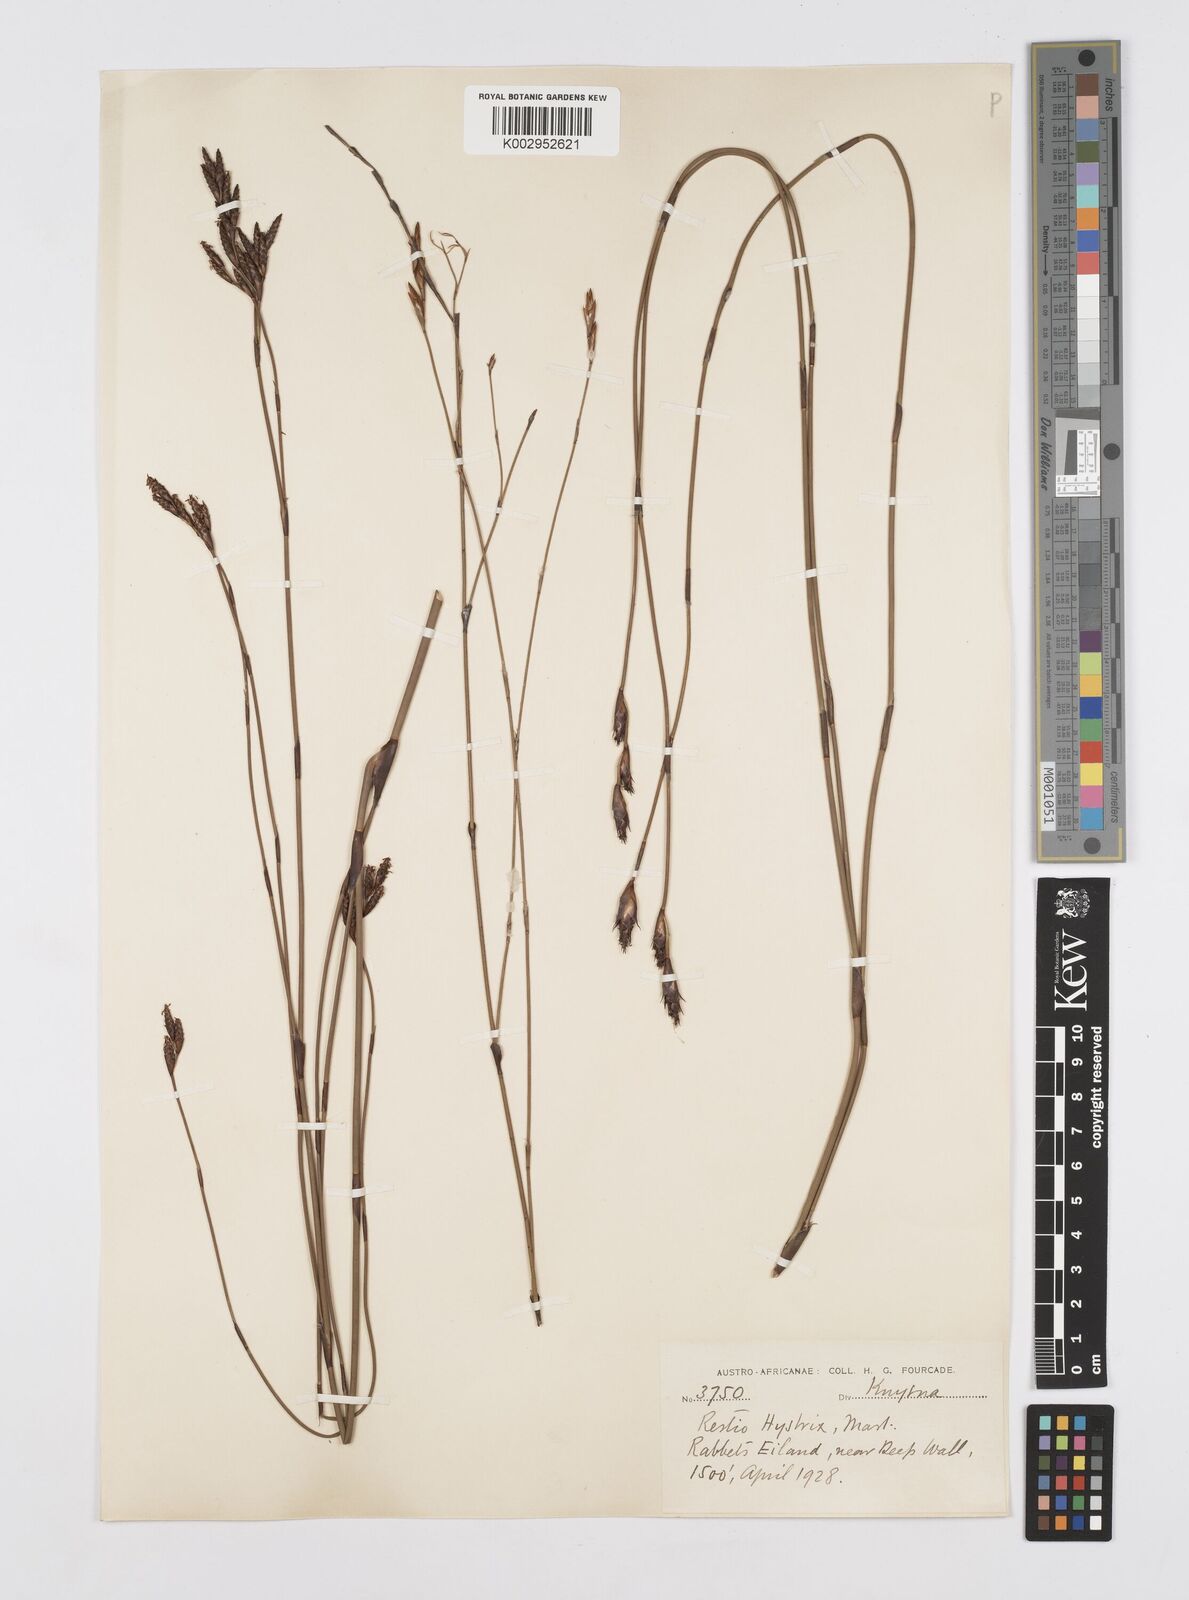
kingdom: Plantae
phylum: Tracheophyta
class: Liliopsida
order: Poales
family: Restionaceae
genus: Restio
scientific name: Restio hystrix
